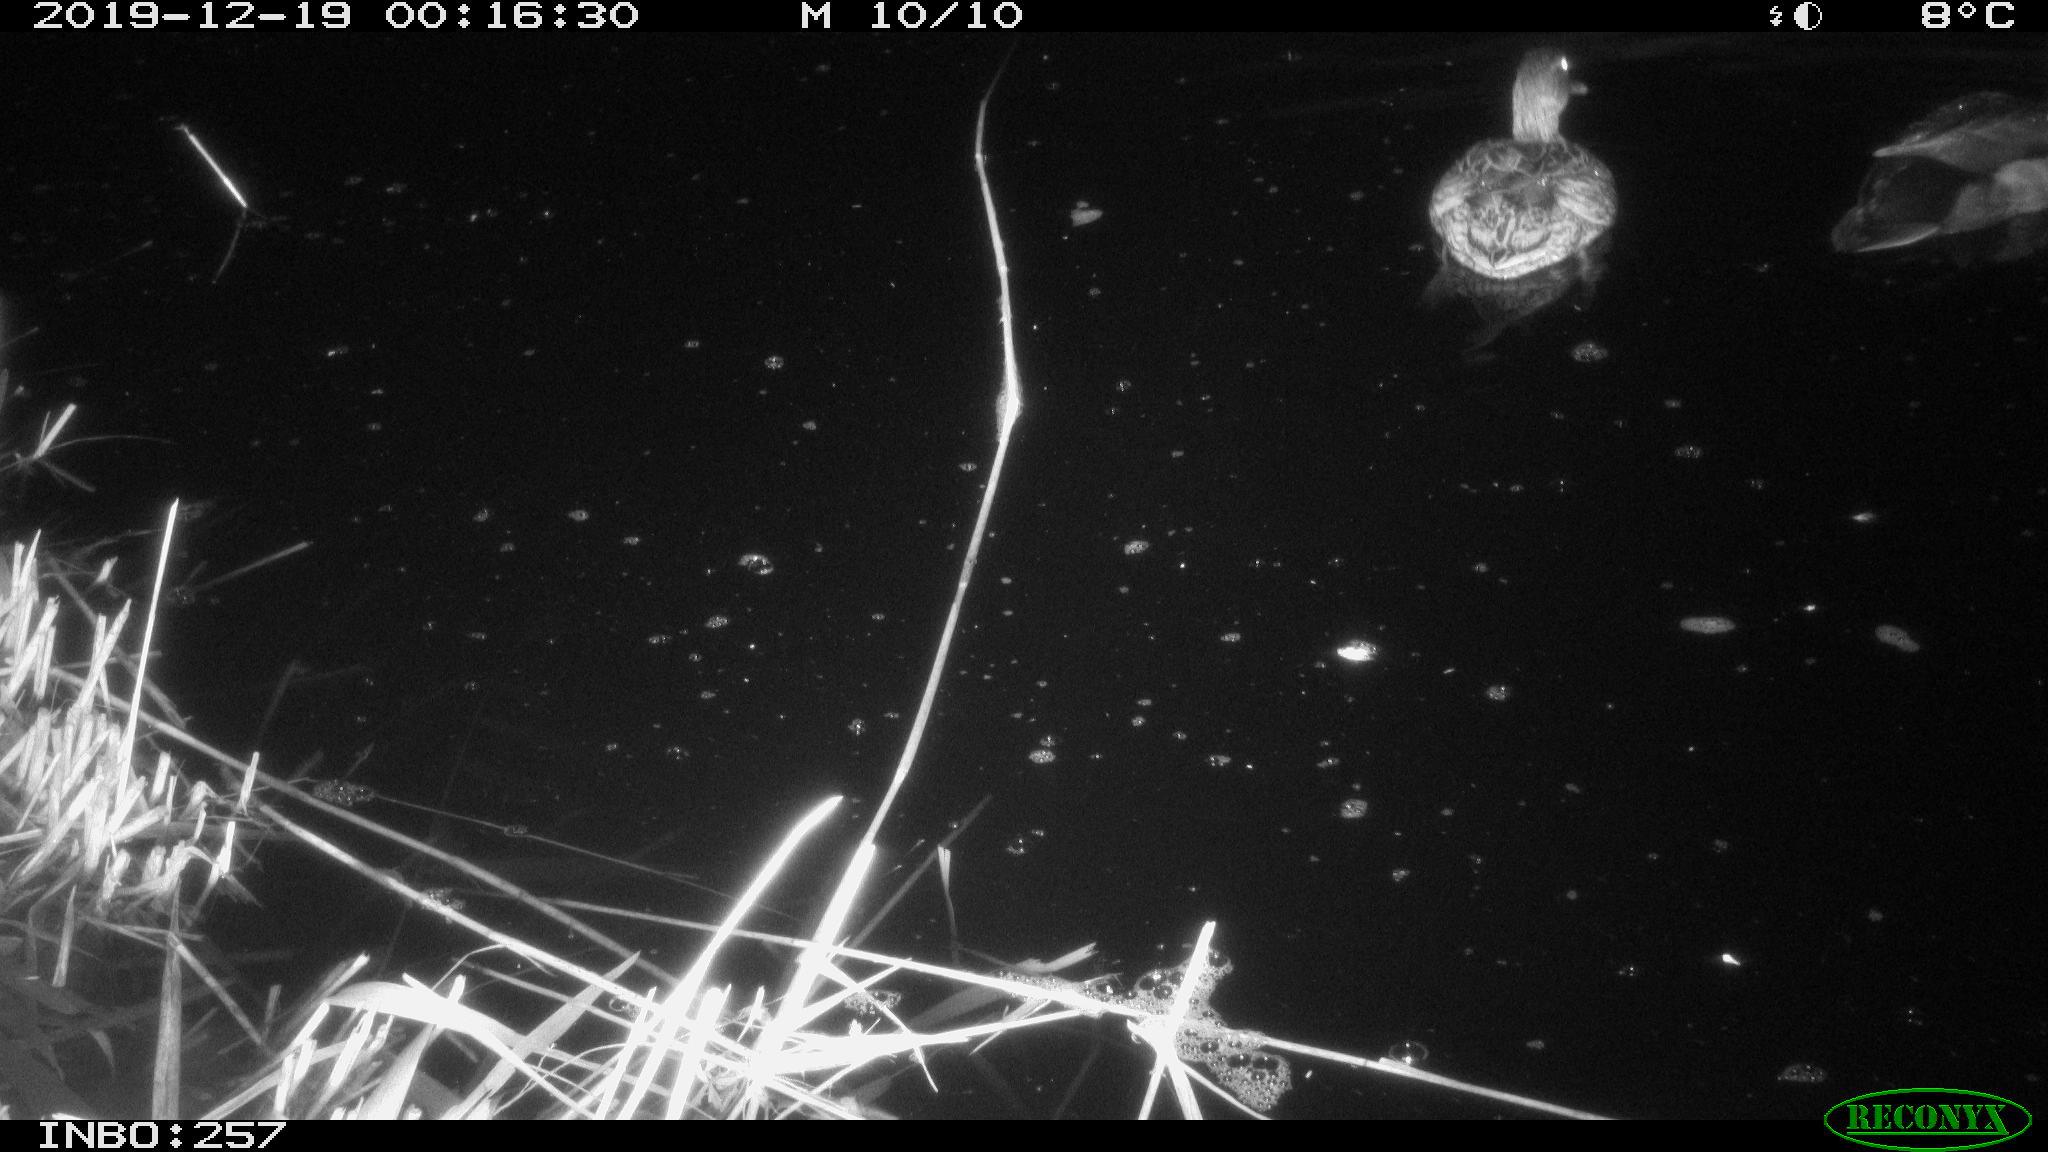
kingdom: Animalia
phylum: Chordata
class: Aves
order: Anseriformes
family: Anatidae
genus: Anas
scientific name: Anas platyrhynchos
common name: Mallard
